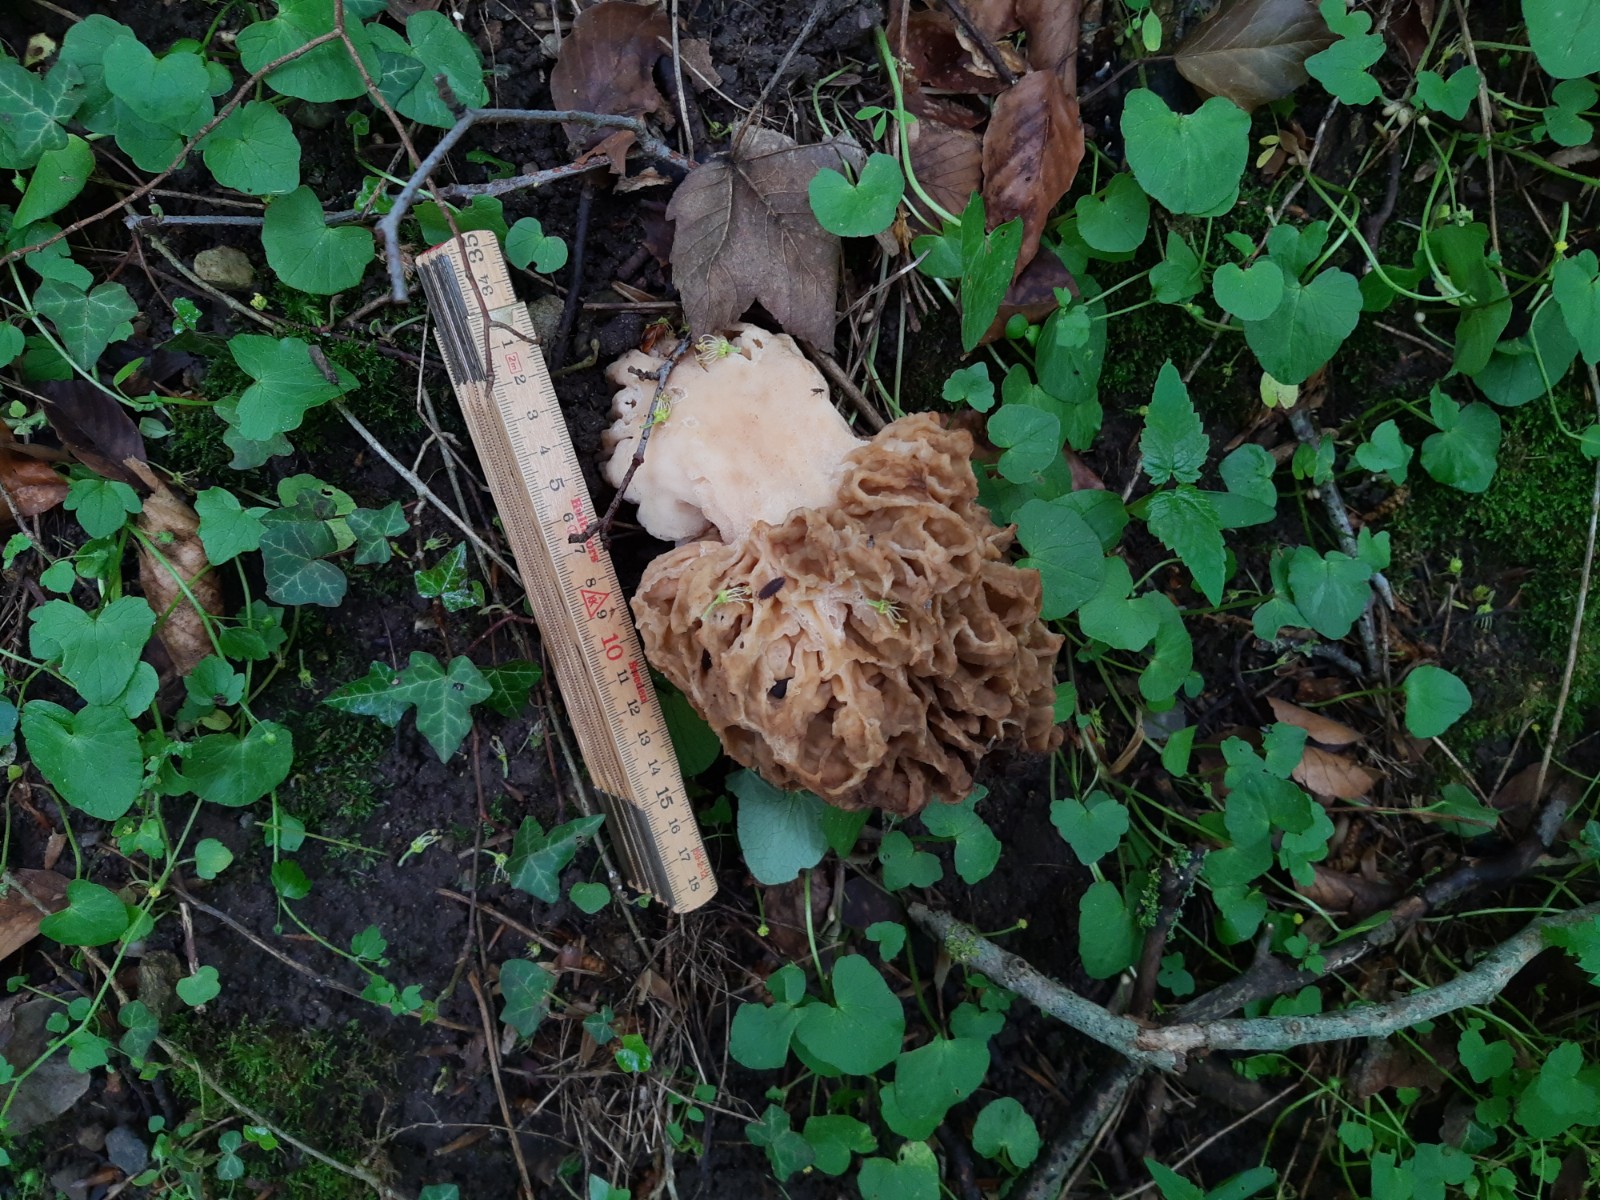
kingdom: Fungi
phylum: Ascomycota
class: Pezizomycetes
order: Pezizales
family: Morchellaceae
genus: Morchella
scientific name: Morchella esculenta
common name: spiselig morkel
